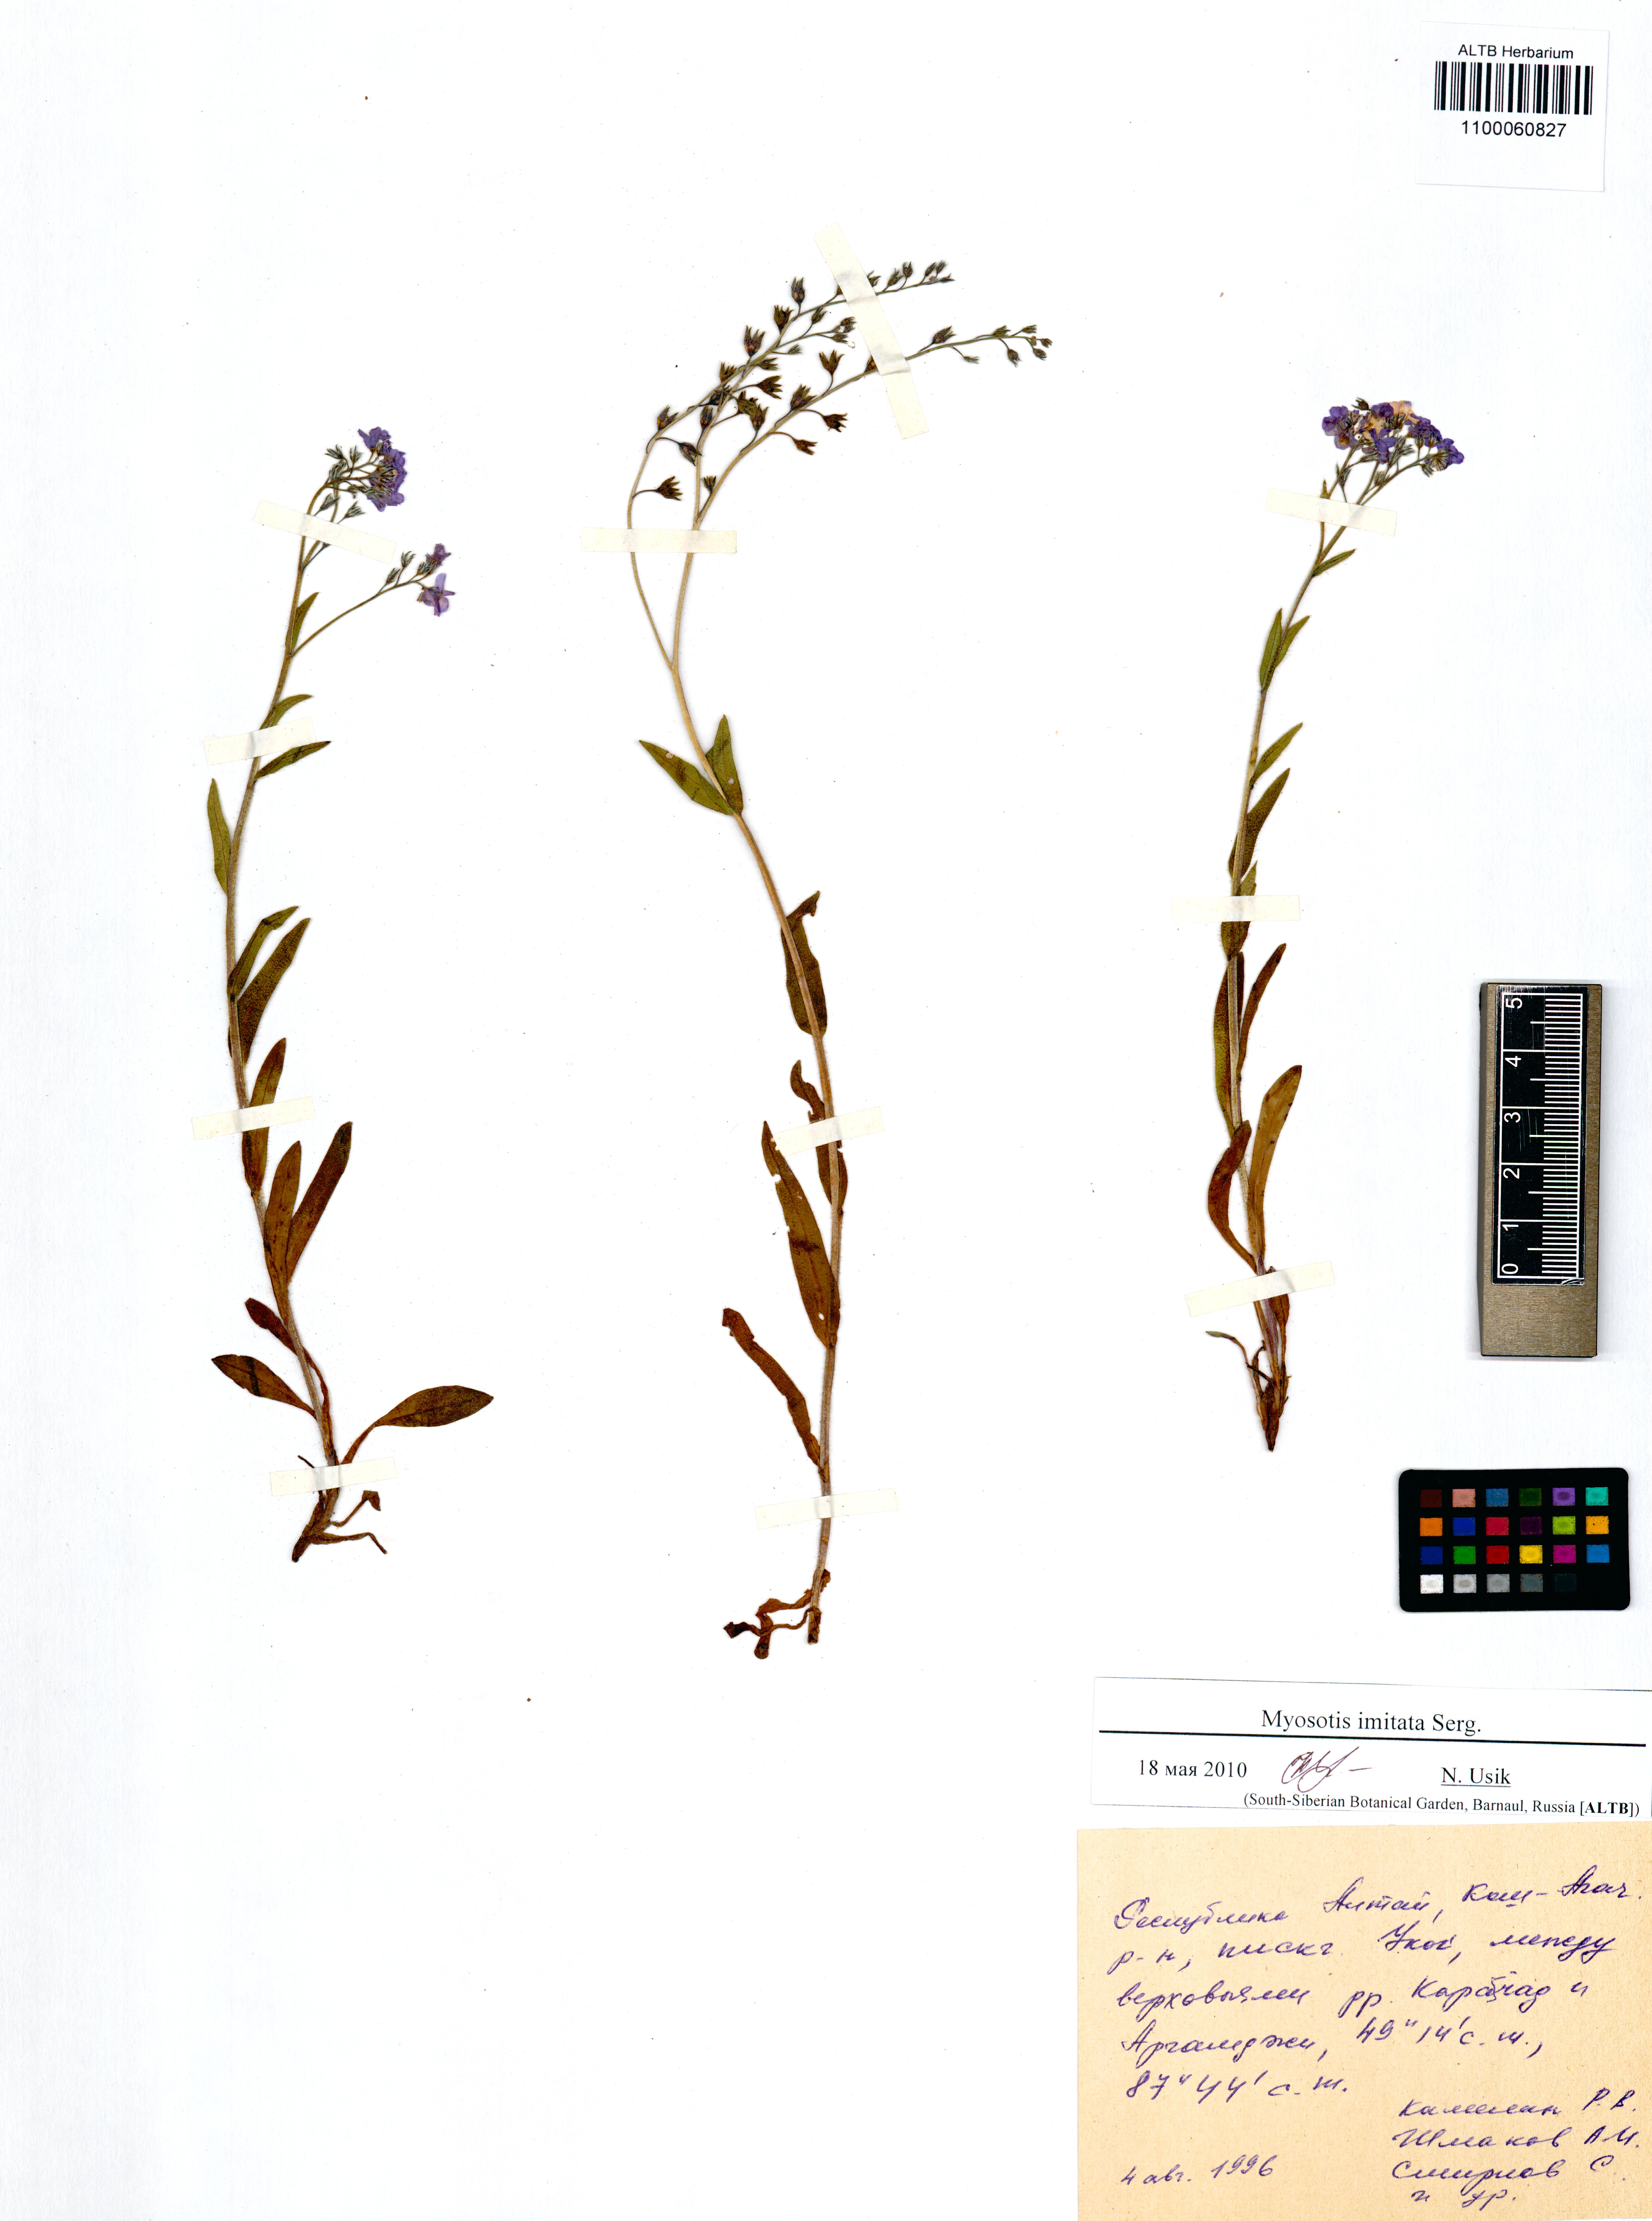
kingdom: Plantae
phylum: Tracheophyta
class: Magnoliopsida
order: Boraginales
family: Boraginaceae
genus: Myosotis
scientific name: Myosotis imitata
